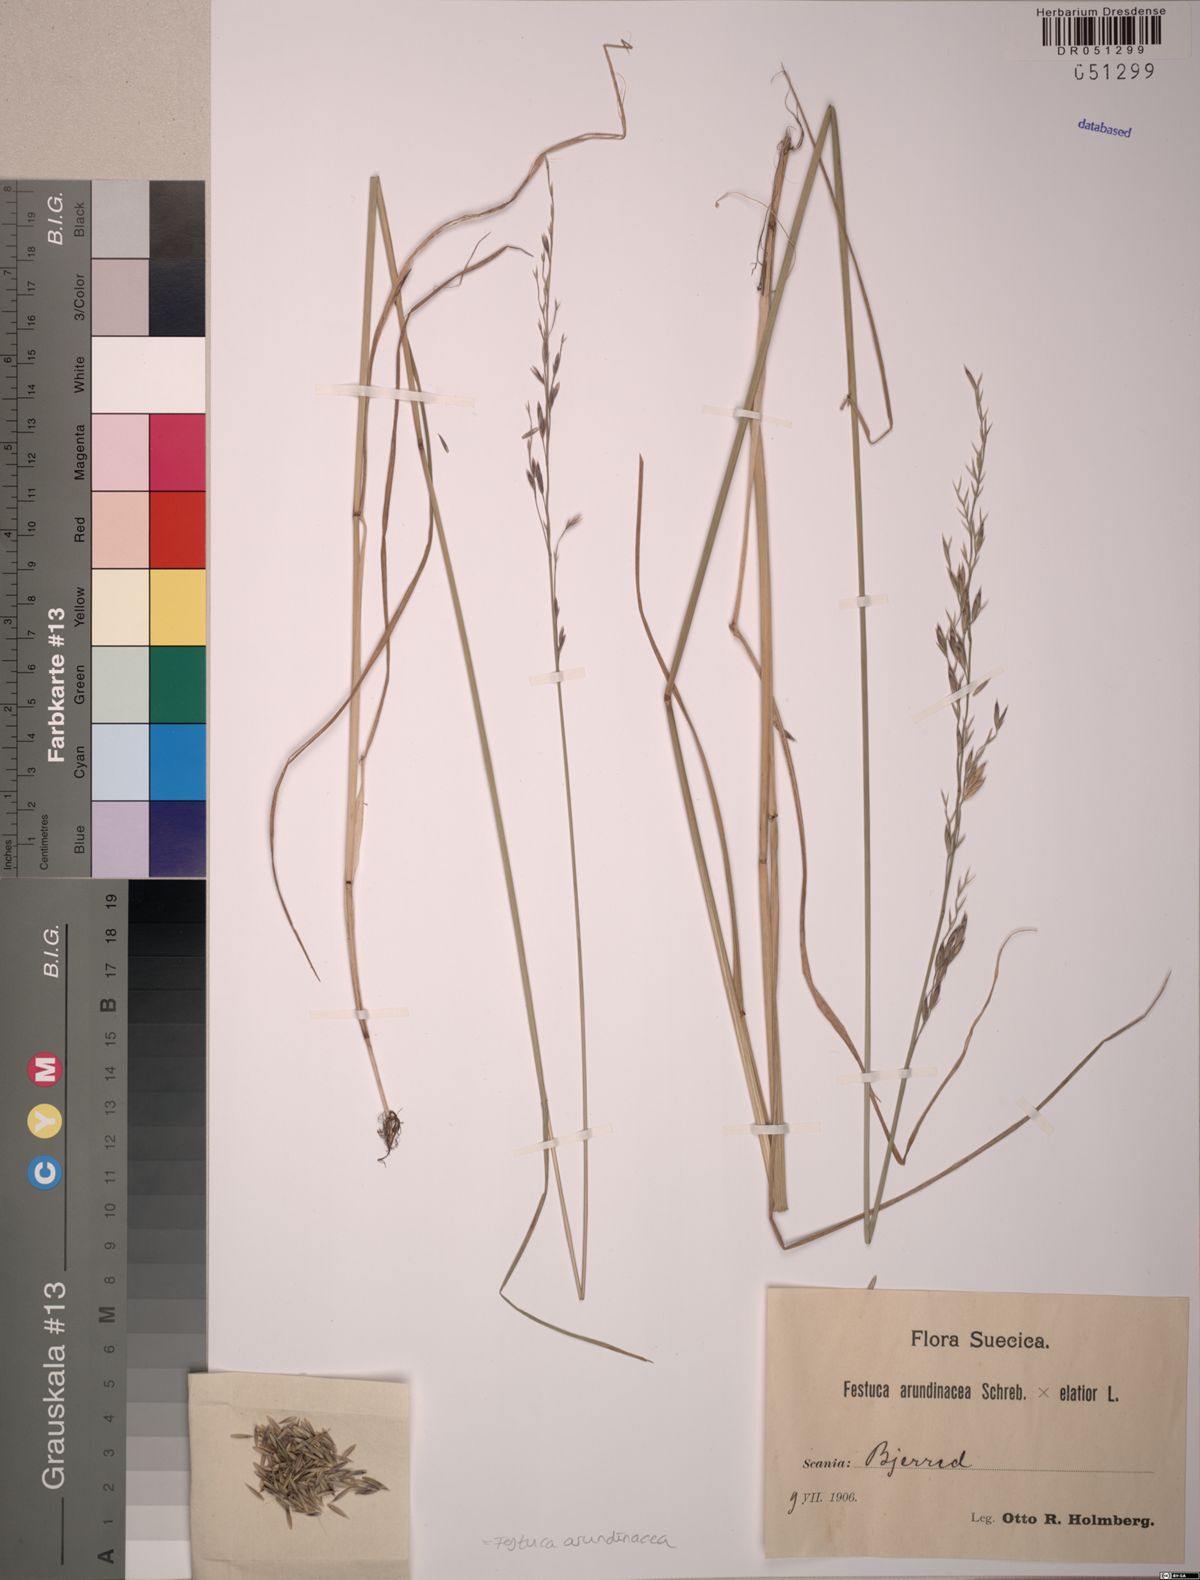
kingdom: Plantae
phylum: Tracheophyta
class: Liliopsida
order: Poales
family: Poaceae
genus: Lolium
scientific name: Lolium arundinaceum
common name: Reed fescue
